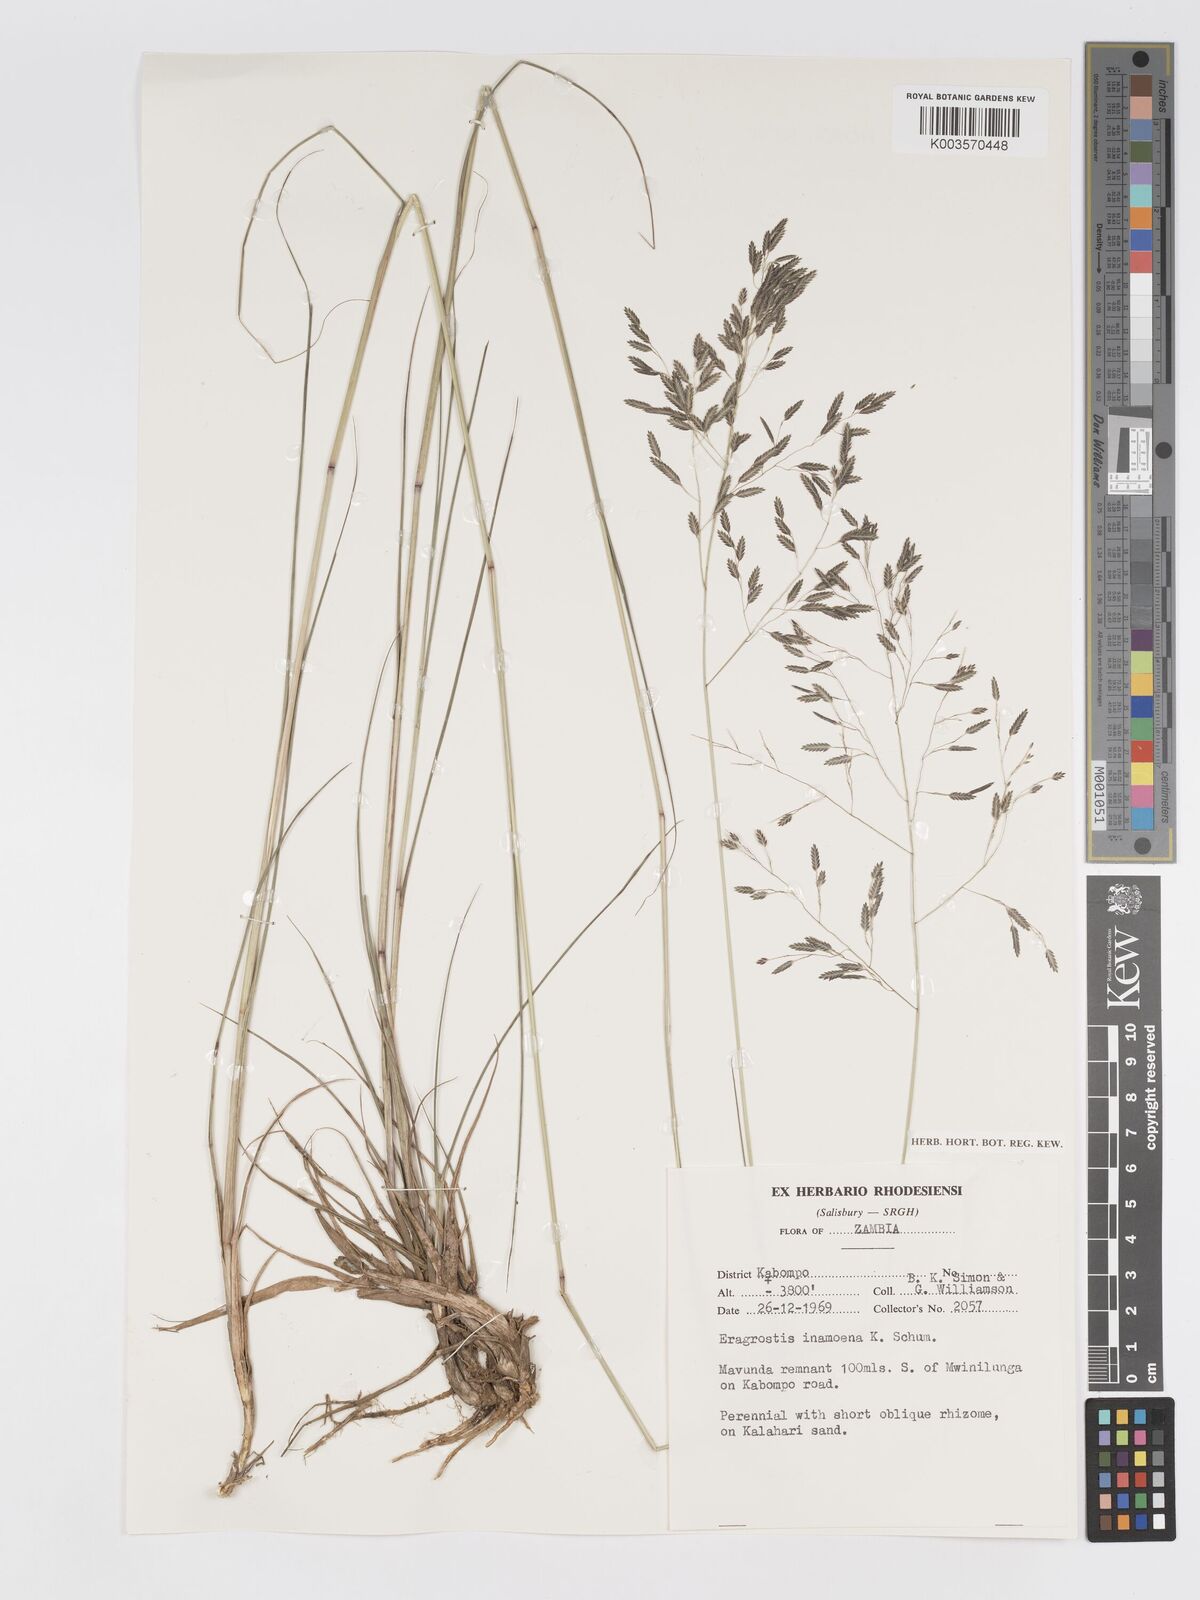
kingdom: Plantae
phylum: Tracheophyta
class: Liliopsida
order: Poales
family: Poaceae
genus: Eragrostis
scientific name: Eragrostis inamoena
